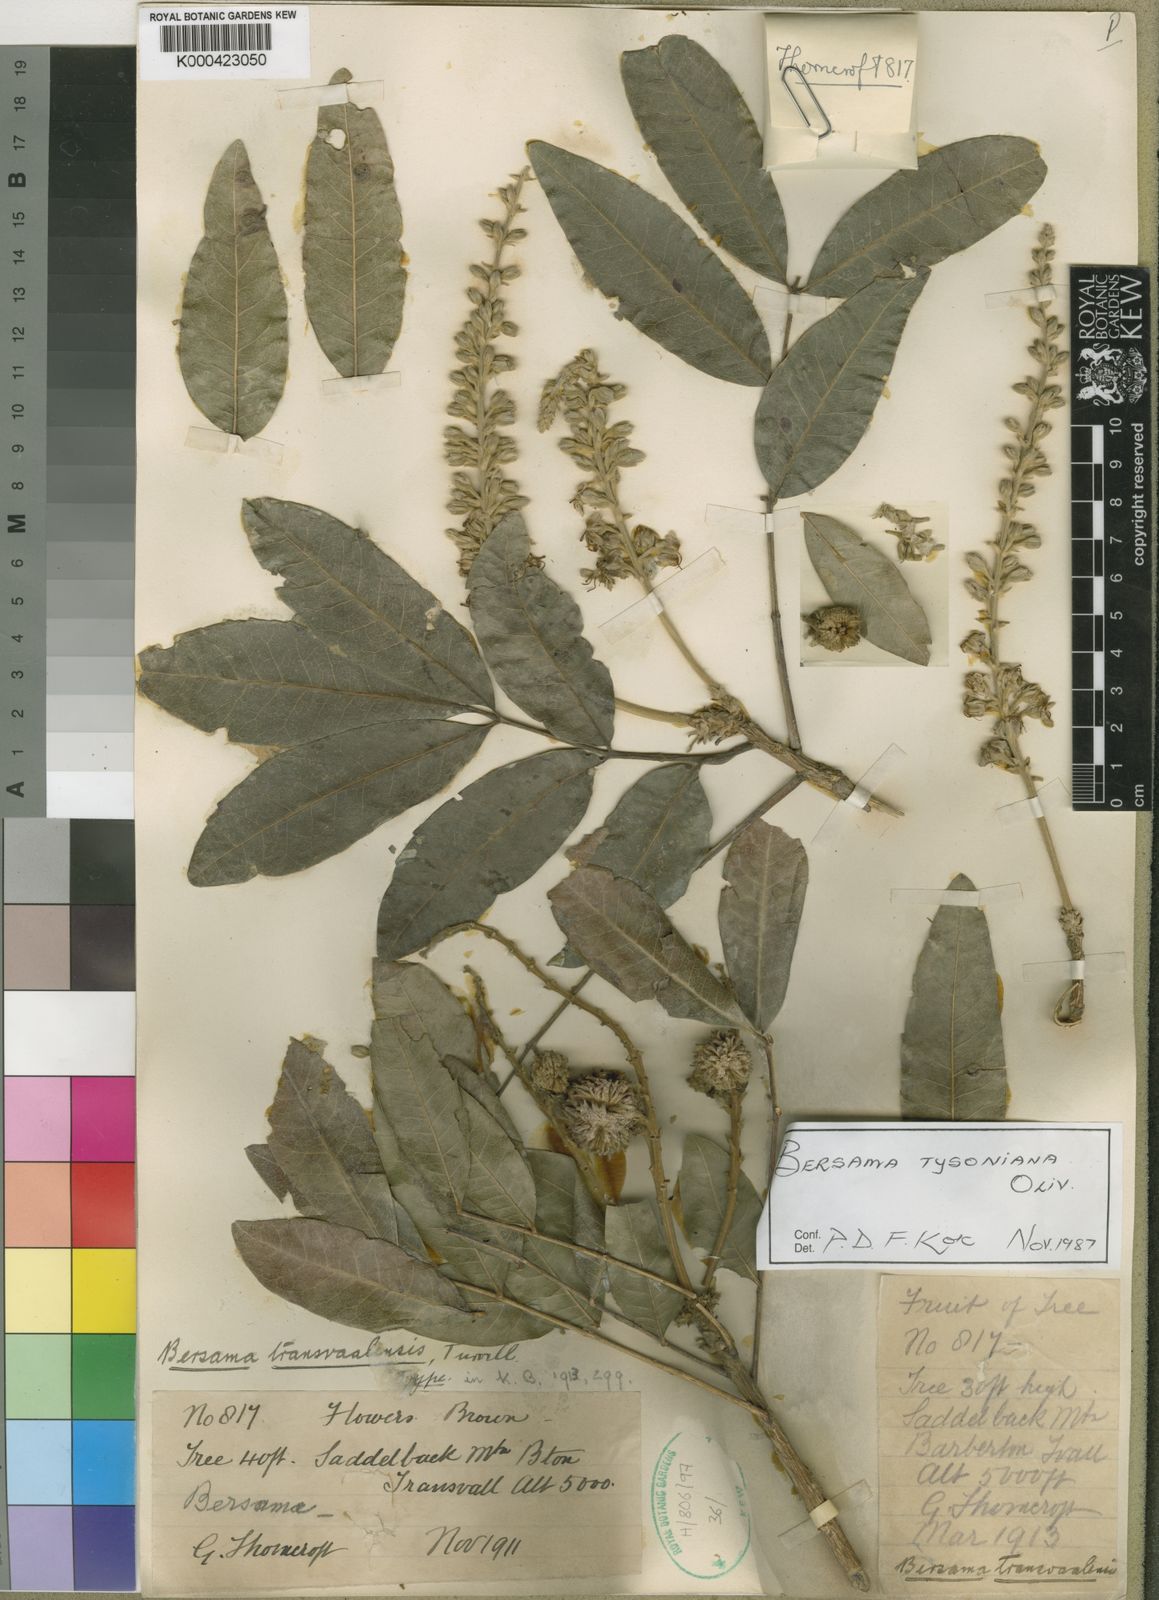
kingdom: Plantae
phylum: Tracheophyta
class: Magnoliopsida
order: Geraniales
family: Melianthaceae
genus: Bersama
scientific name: Bersama tysoniana
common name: Common white ash
